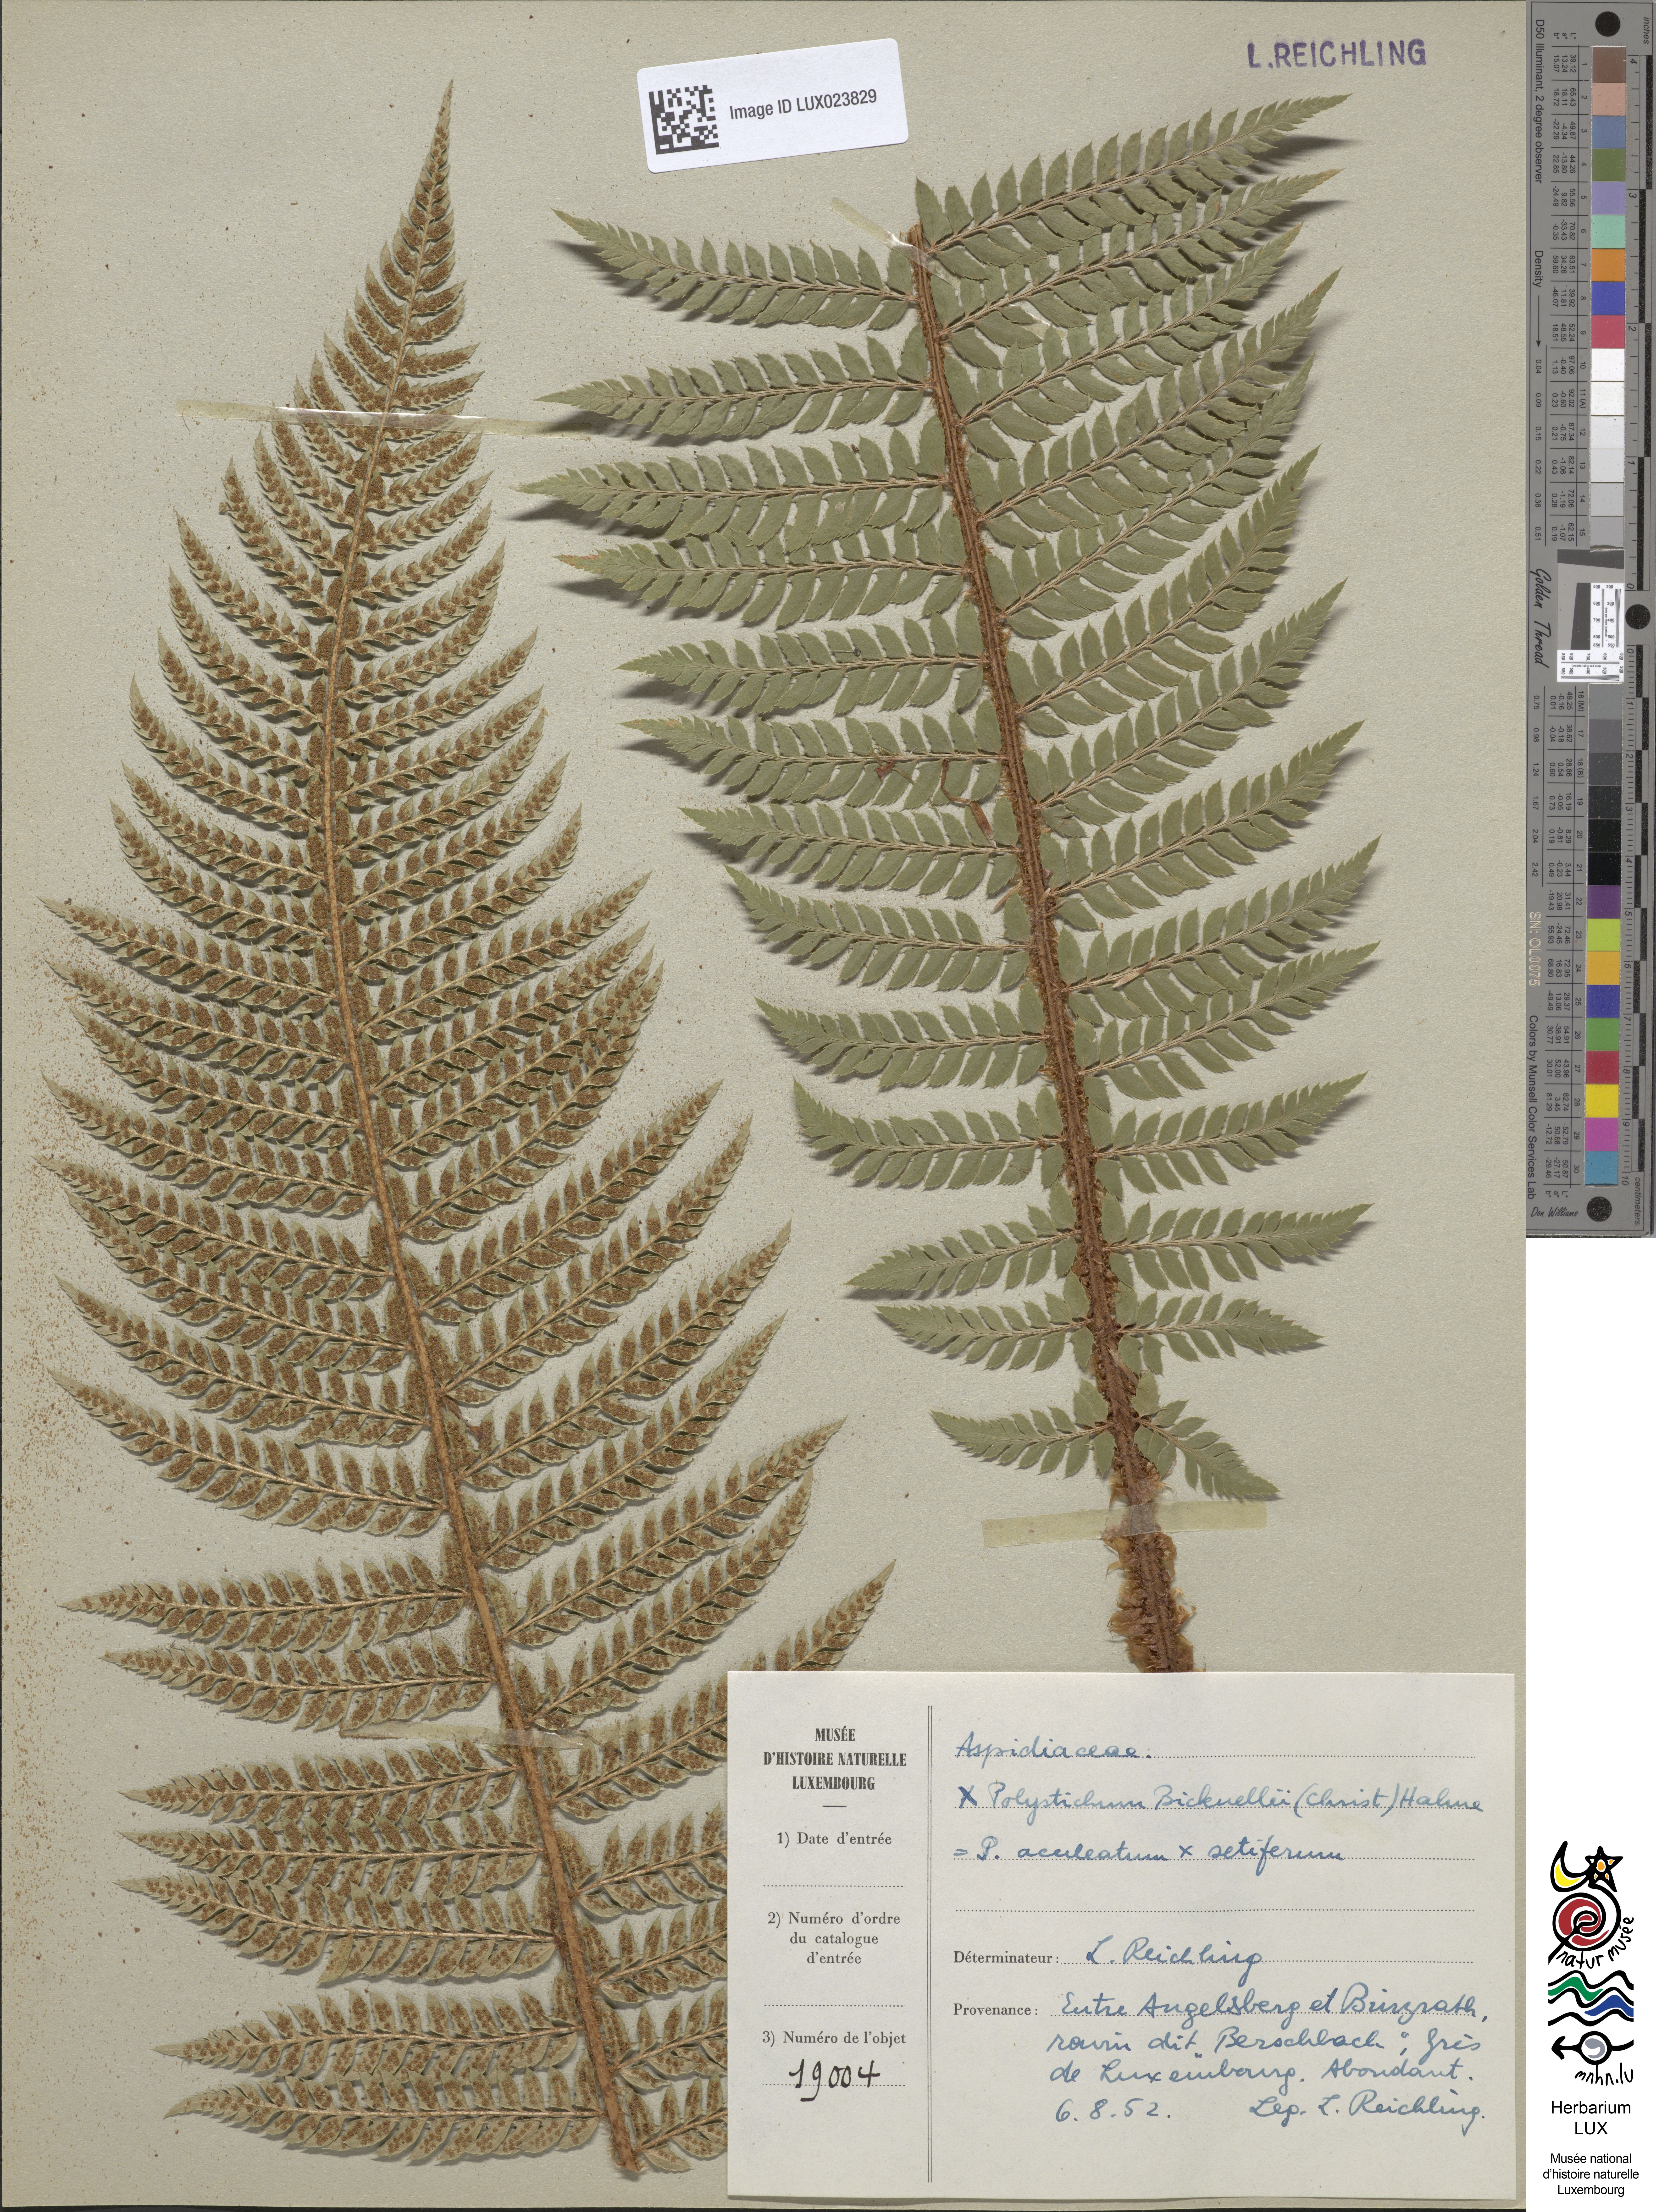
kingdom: Plantae
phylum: Tracheophyta
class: Polypodiopsida
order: Polypodiales
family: Dryopteridaceae
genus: Polystichum
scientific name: Polystichum
